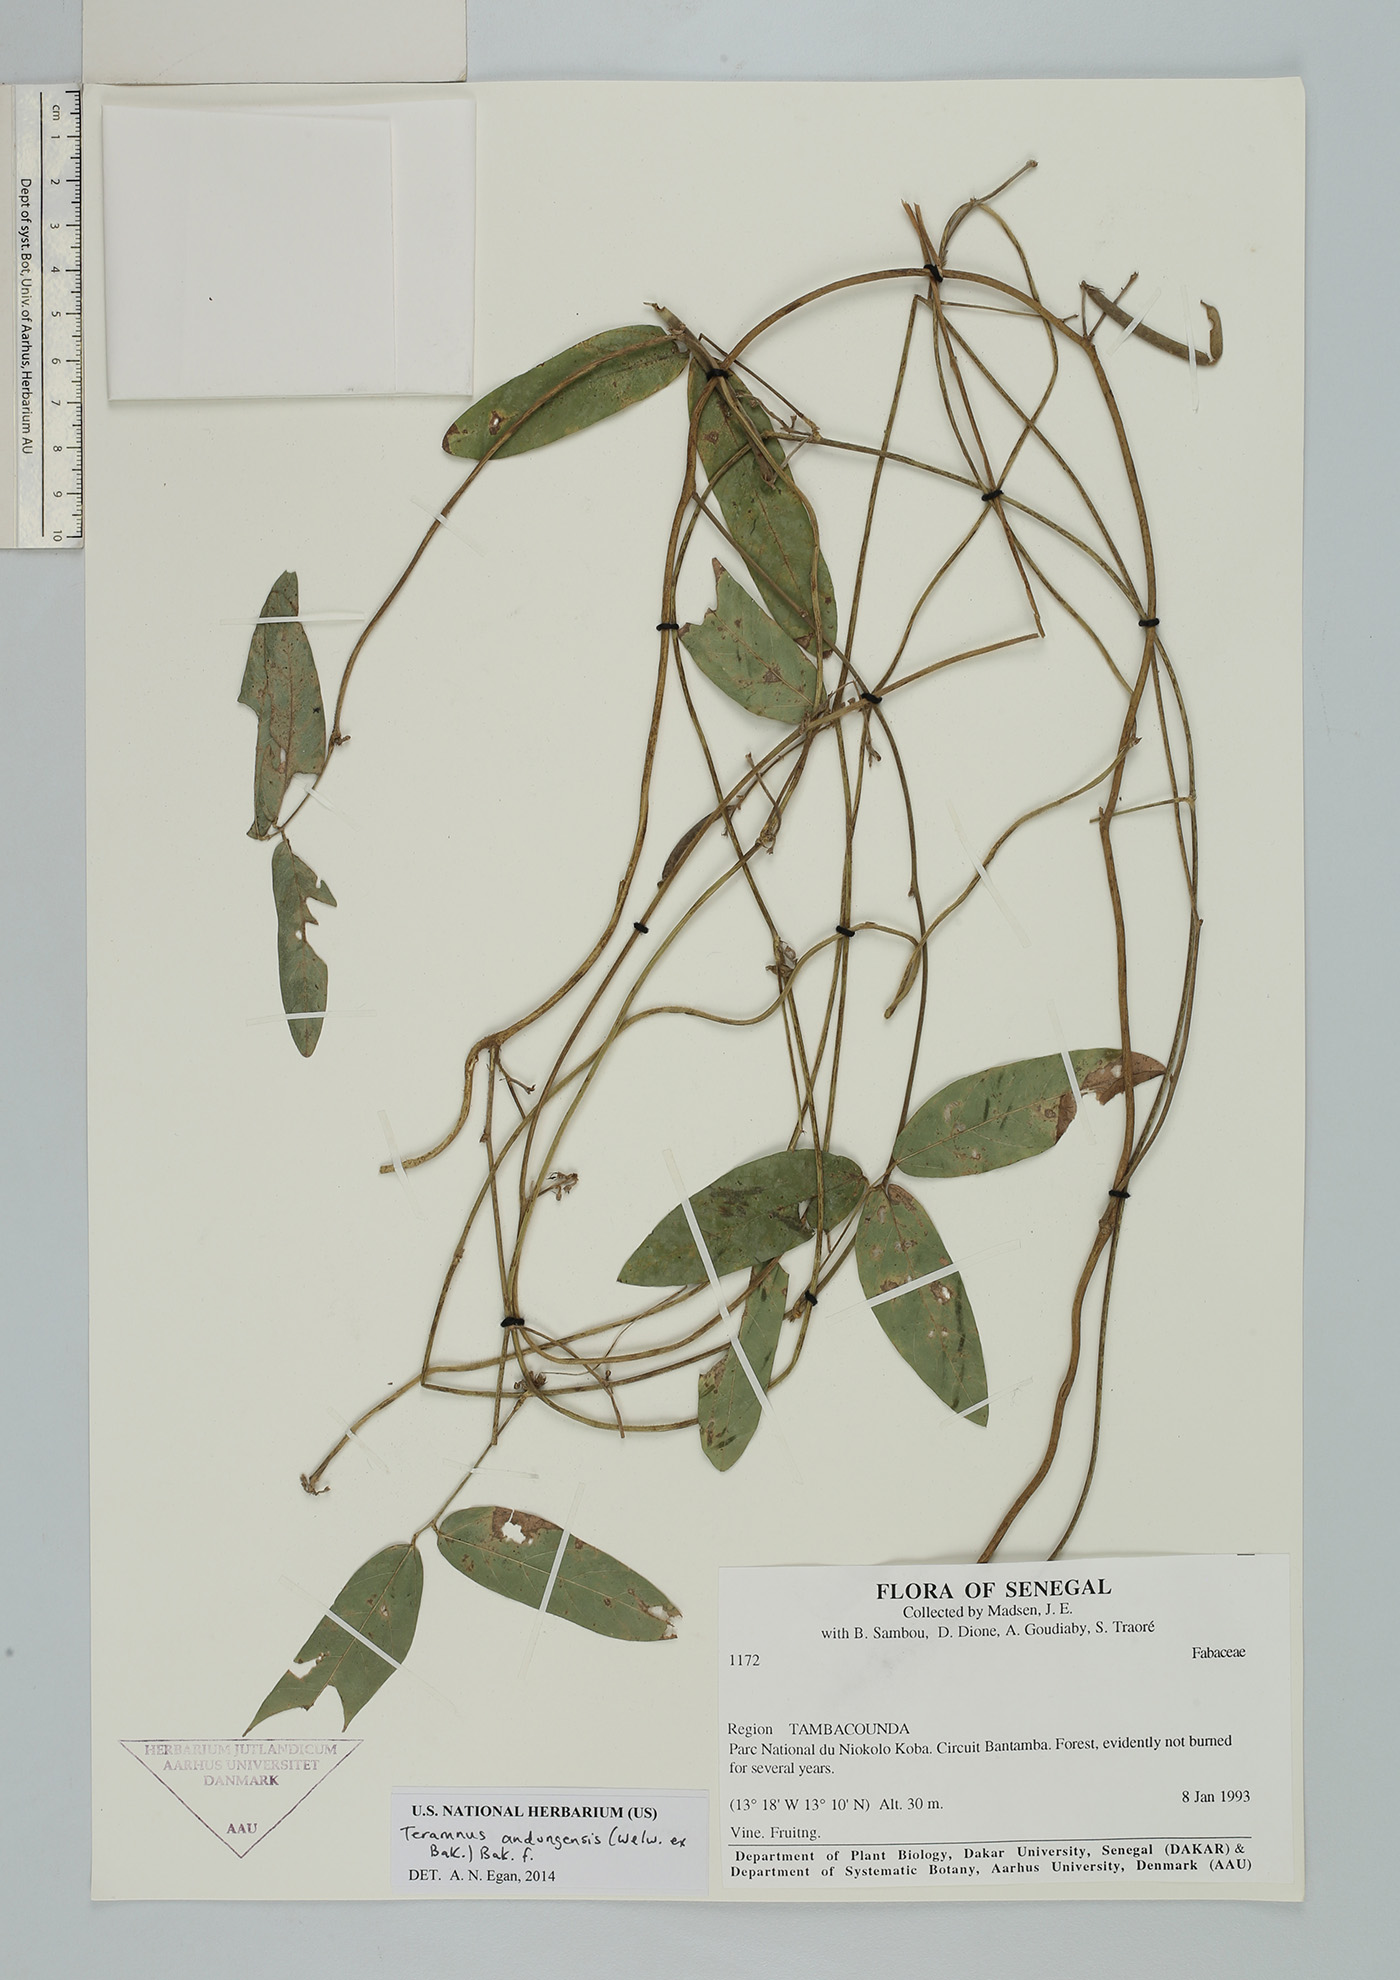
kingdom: Plantae
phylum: Tracheophyta
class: Magnoliopsida
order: Fabales
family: Fabaceae
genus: Teramnus
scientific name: Teramnus uncinatus
